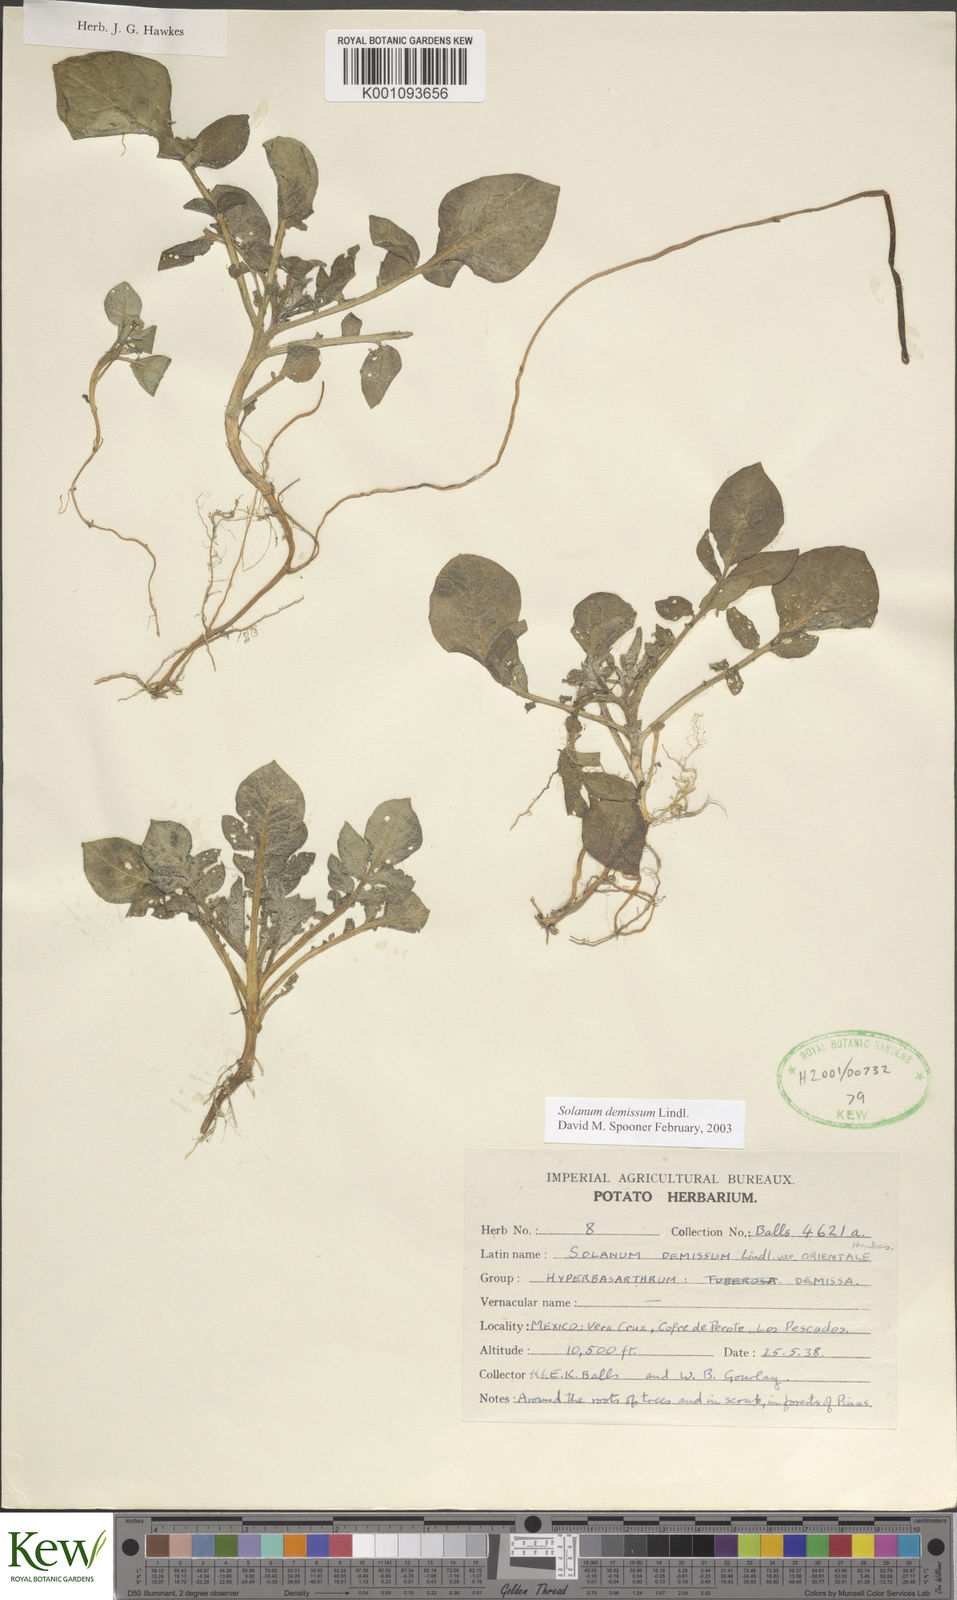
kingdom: Plantae
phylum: Tracheophyta
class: Magnoliopsida
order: Solanales
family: Solanaceae
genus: Solanum
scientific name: Solanum demissum
